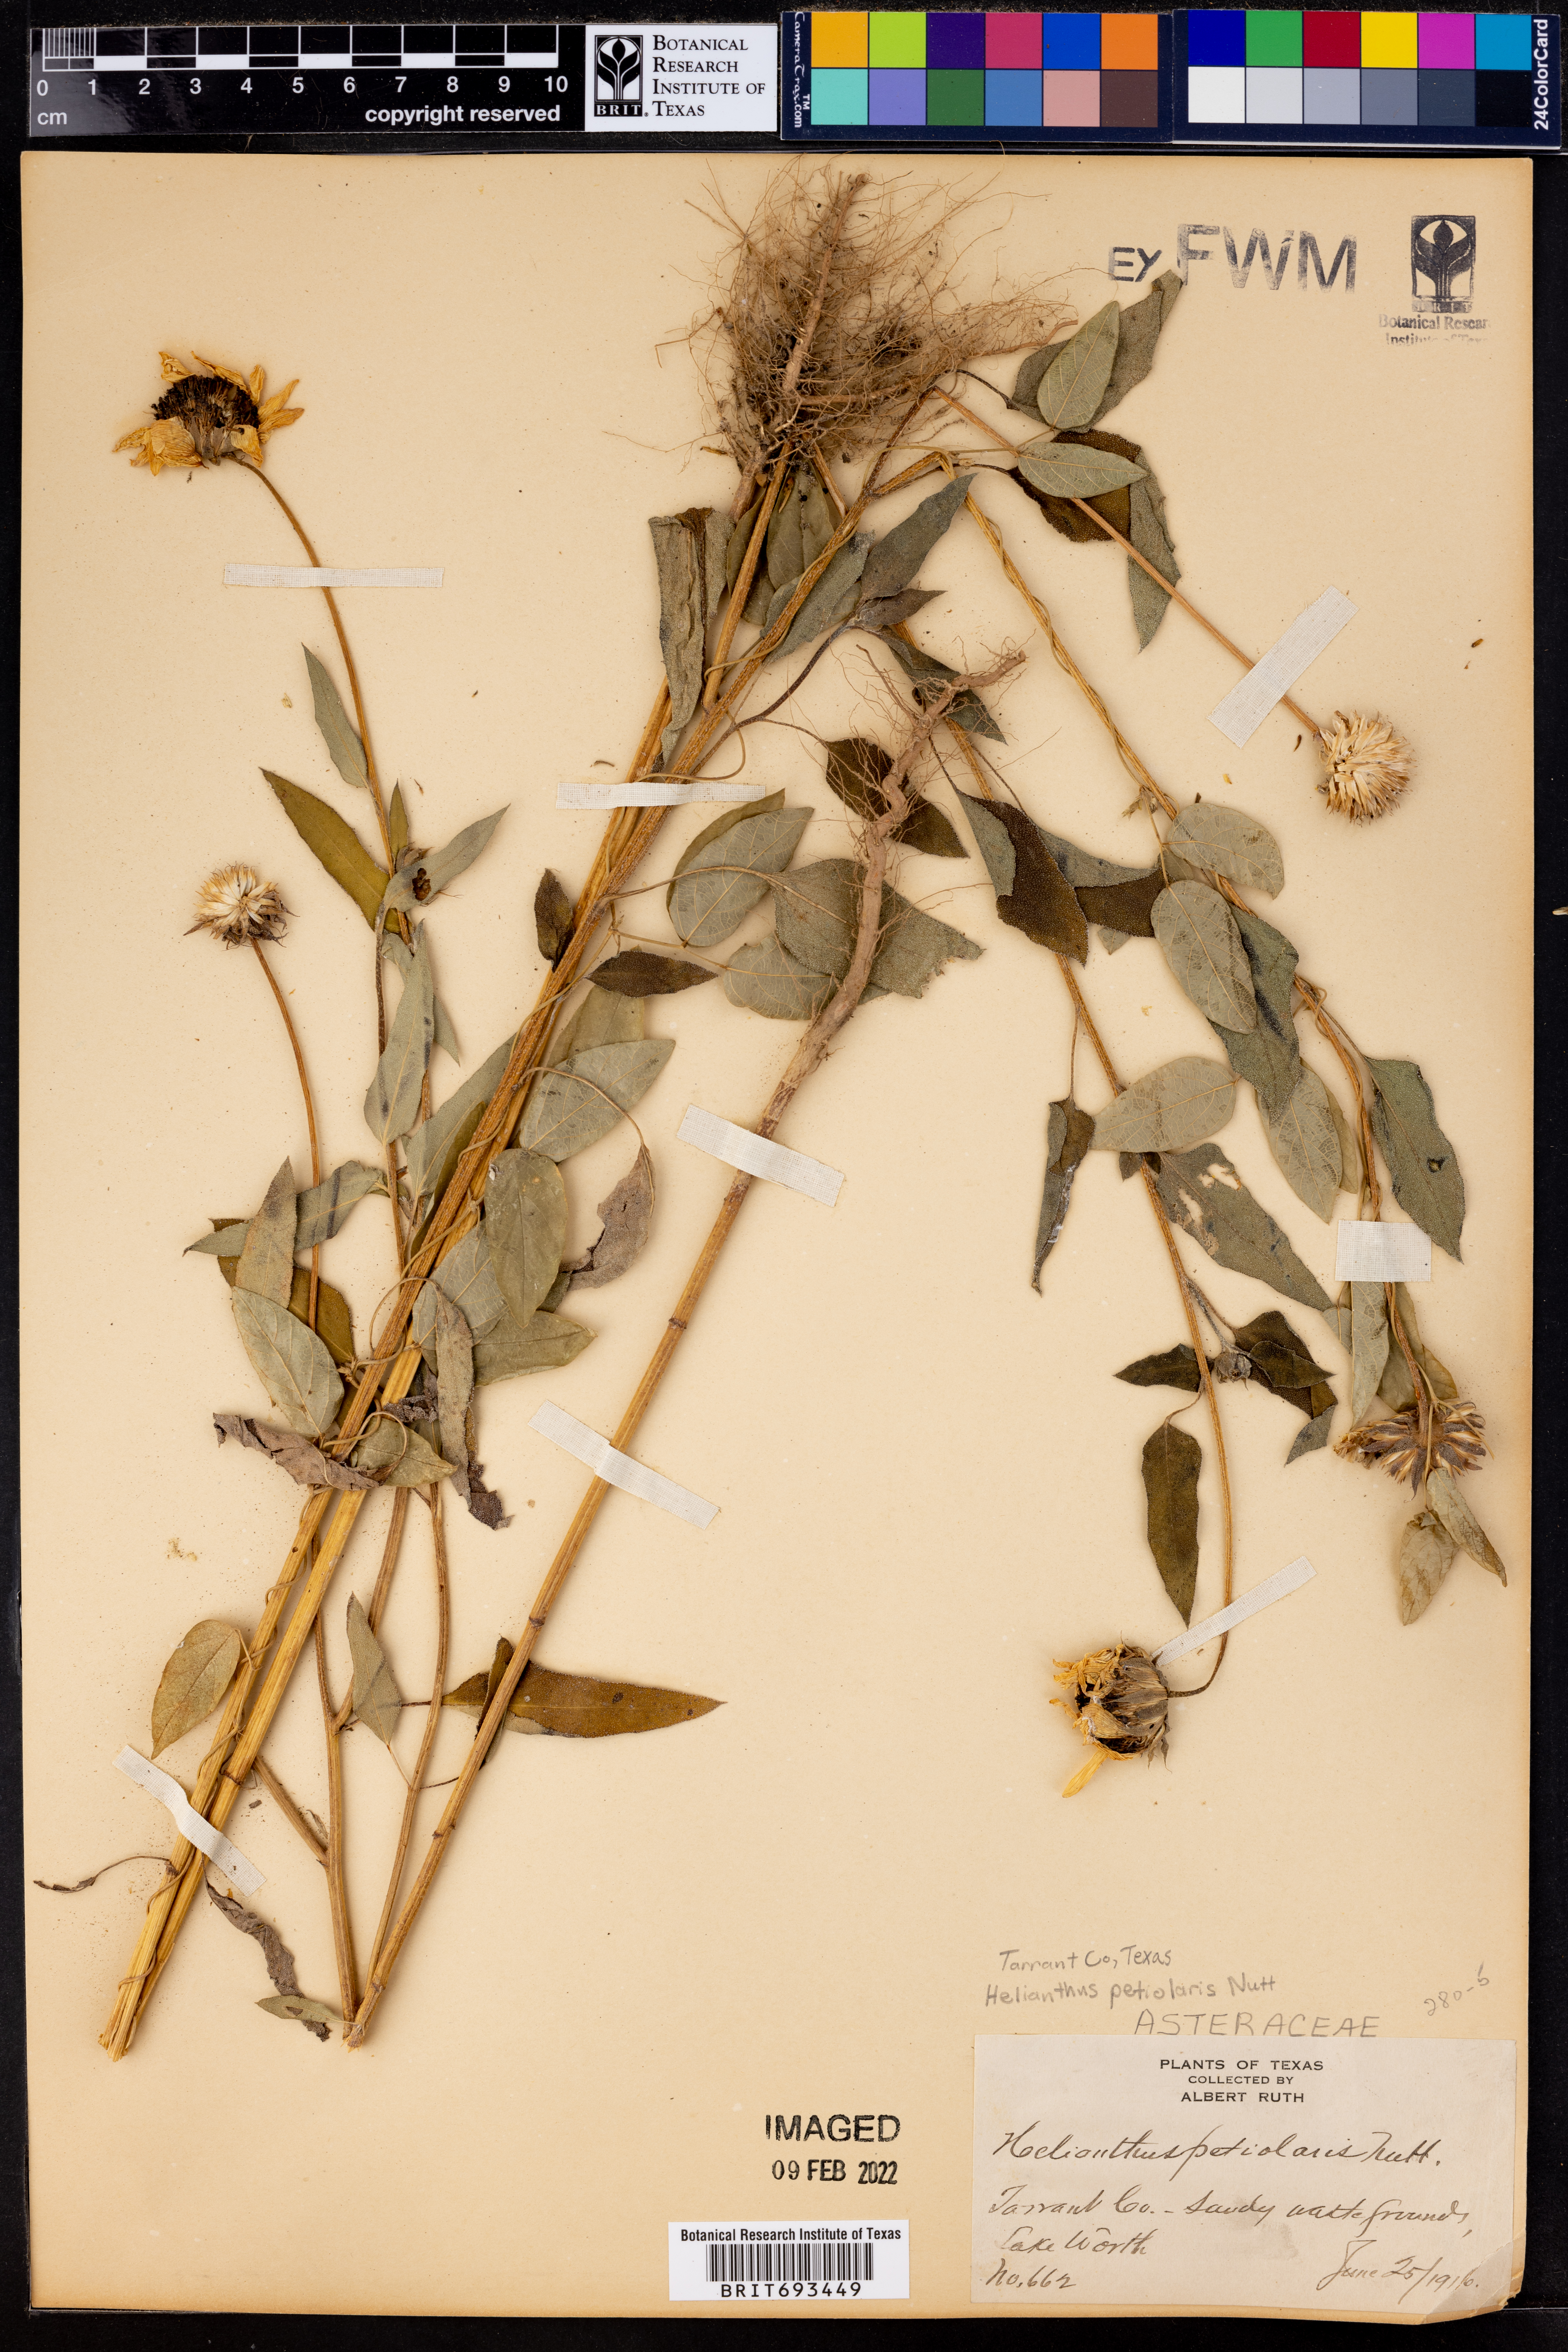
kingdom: Plantae
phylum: Tracheophyta
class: Magnoliopsida
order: Asterales
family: Asteraceae
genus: Helianthus
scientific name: Helianthus petiolaris
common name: Lesser sunflower
